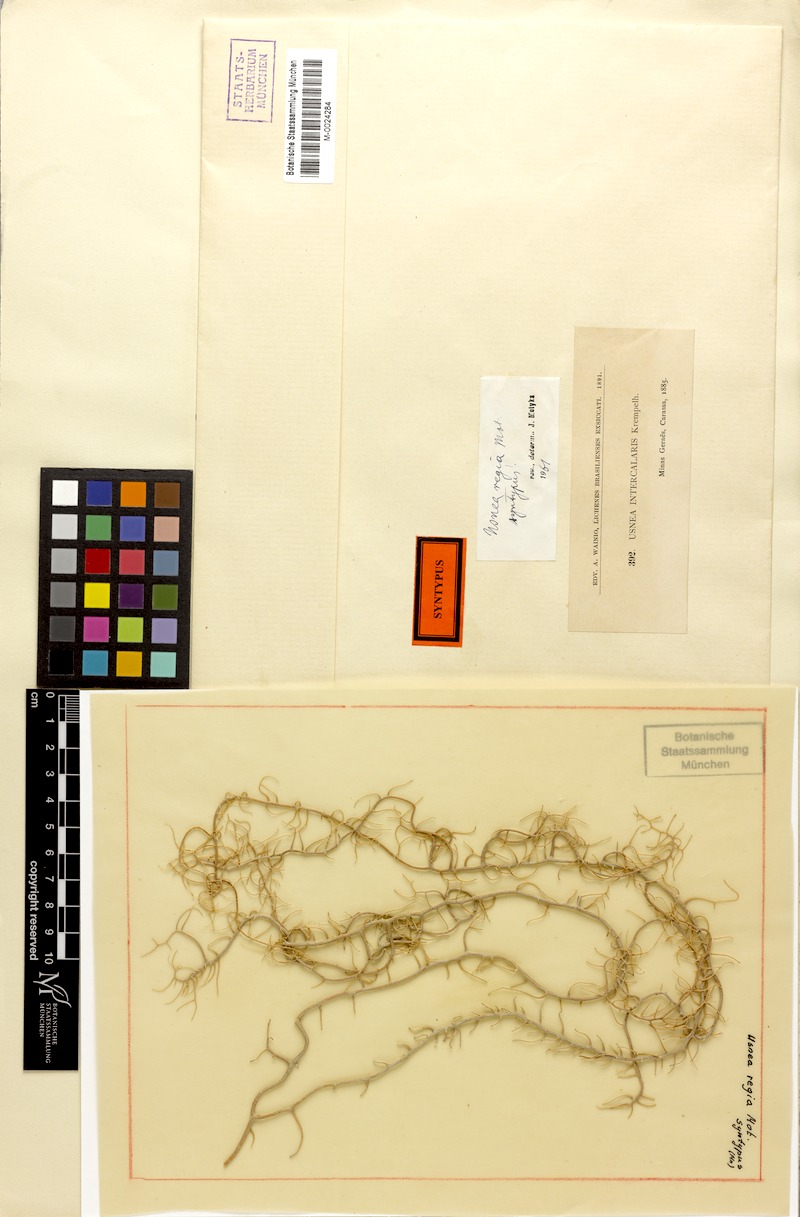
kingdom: Fungi
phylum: Ascomycota
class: Lecanoromycetes
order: Lecanorales
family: Parmeliaceae
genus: Usnea
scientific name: Usnea quasirigida
